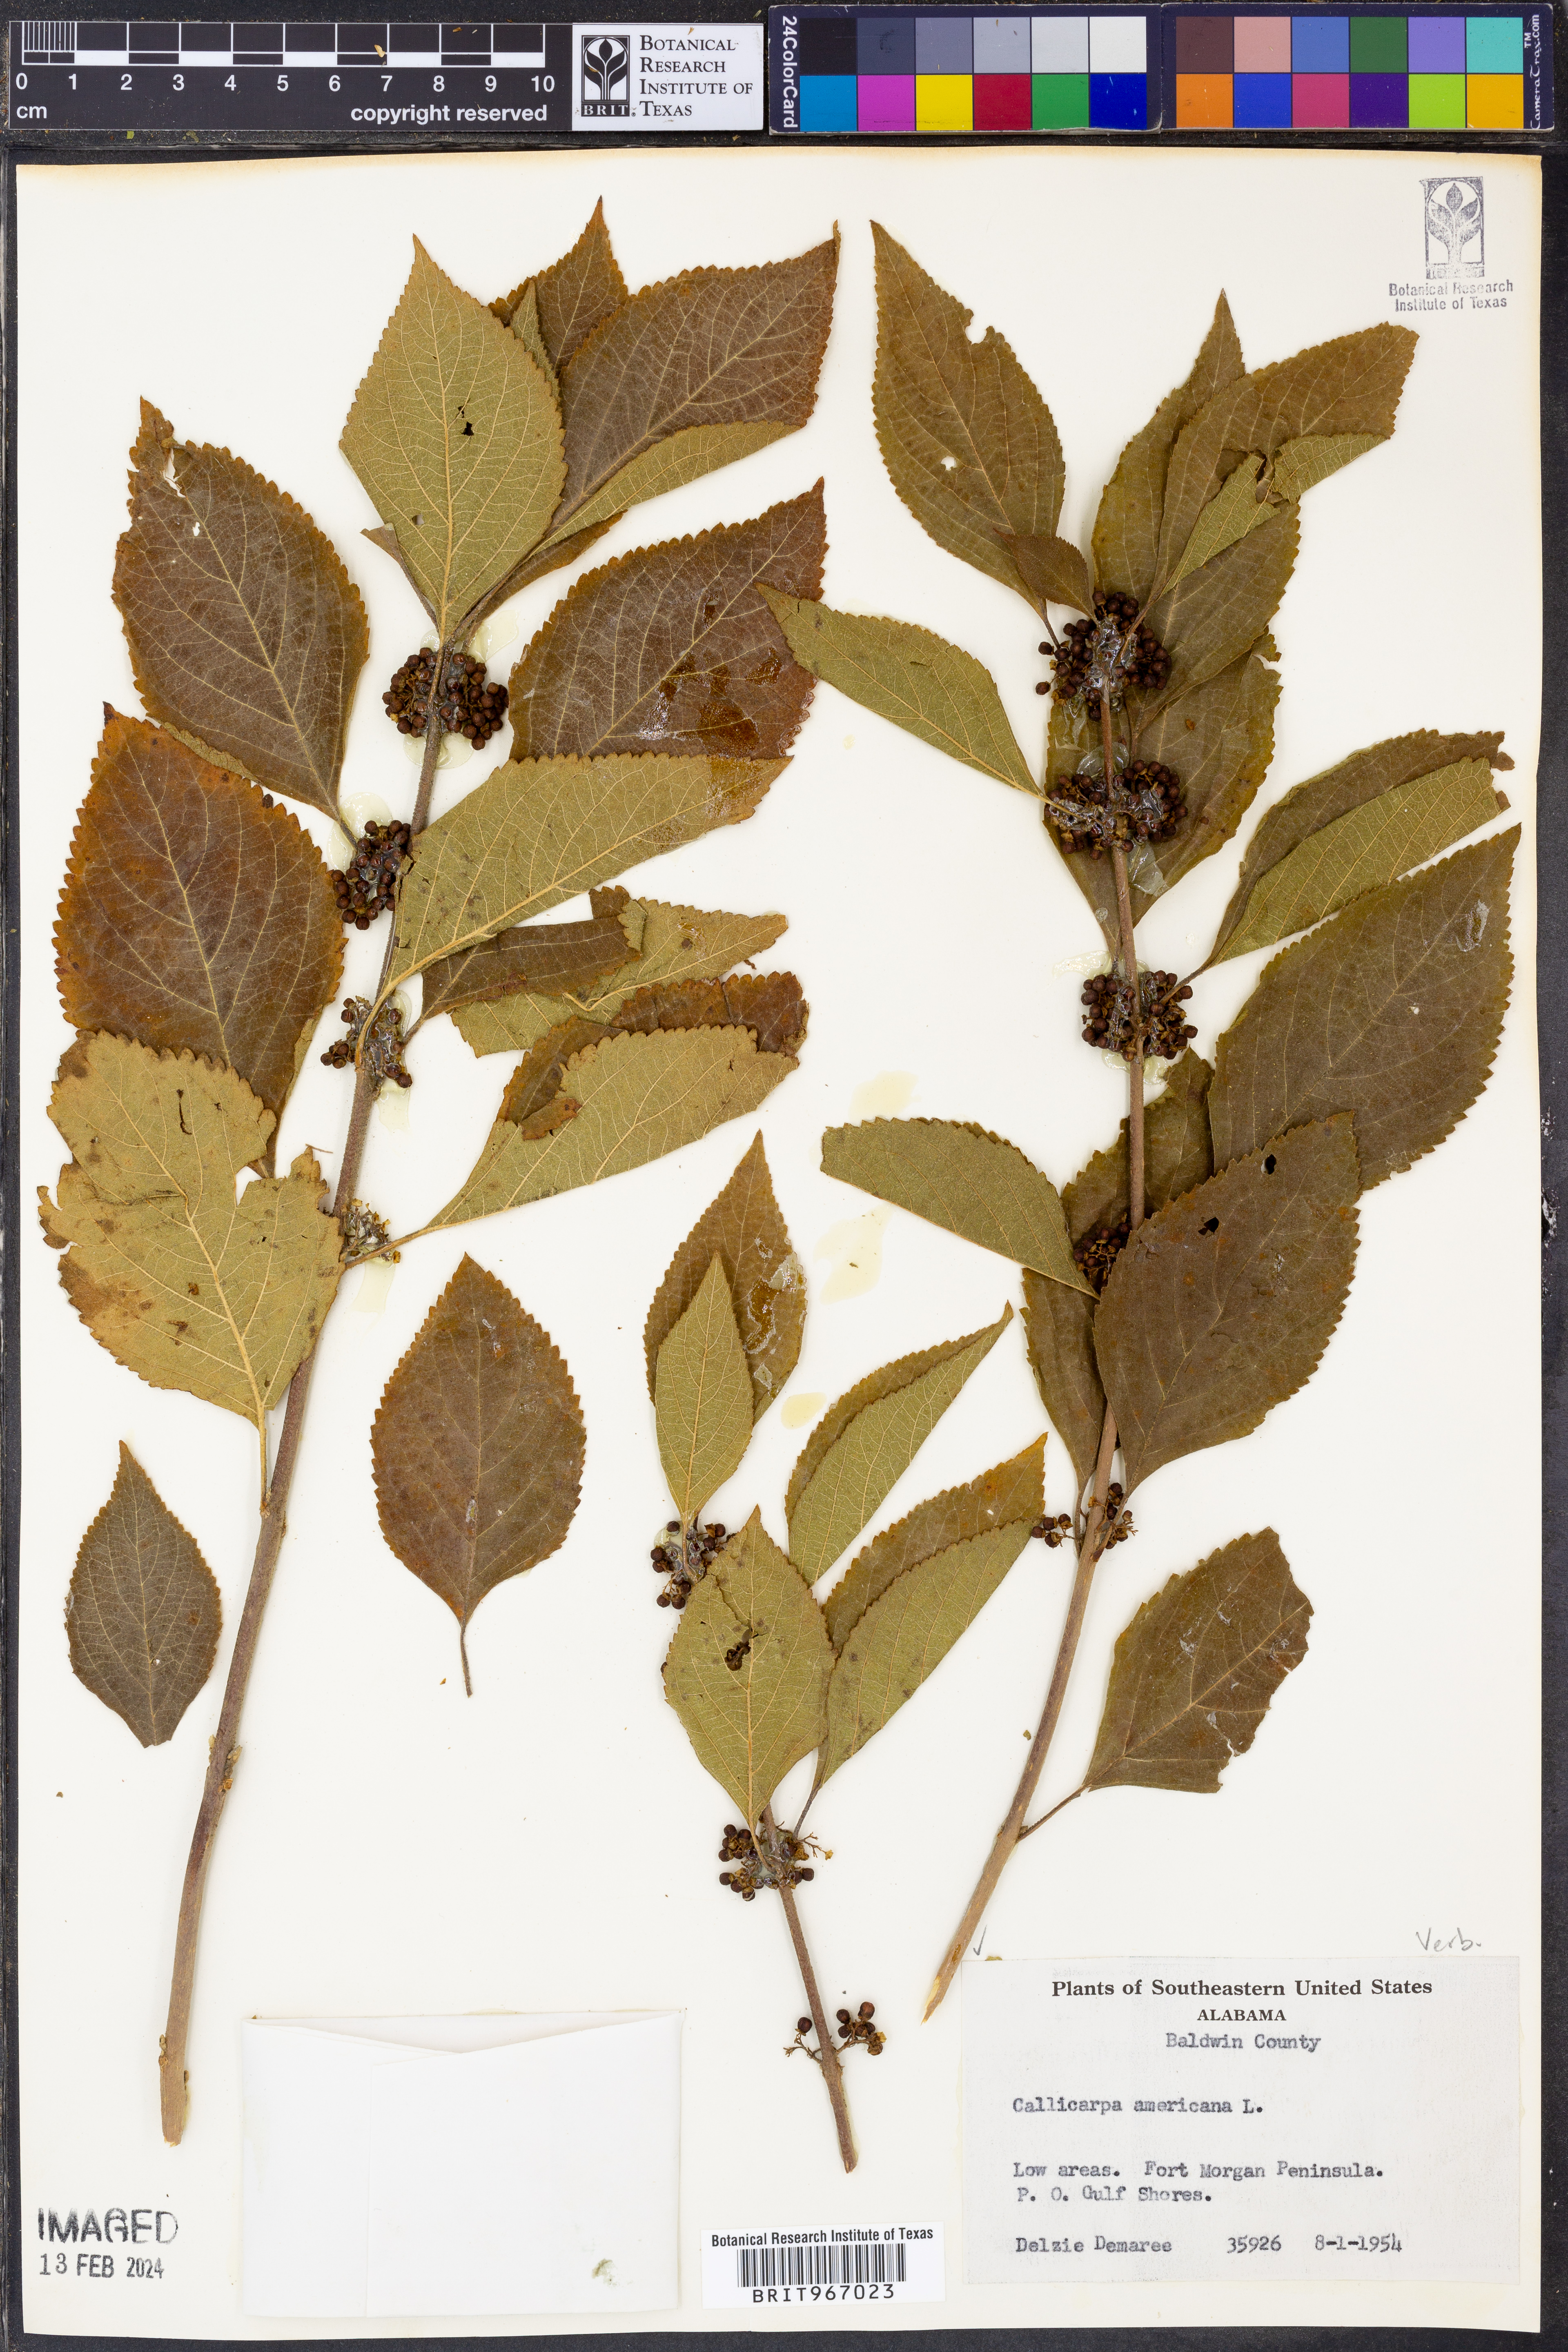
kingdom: Plantae
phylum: Tracheophyta
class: Magnoliopsida
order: Lamiales
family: Lamiaceae
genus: Callicarpa
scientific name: Callicarpa americana
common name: American beautyberry
